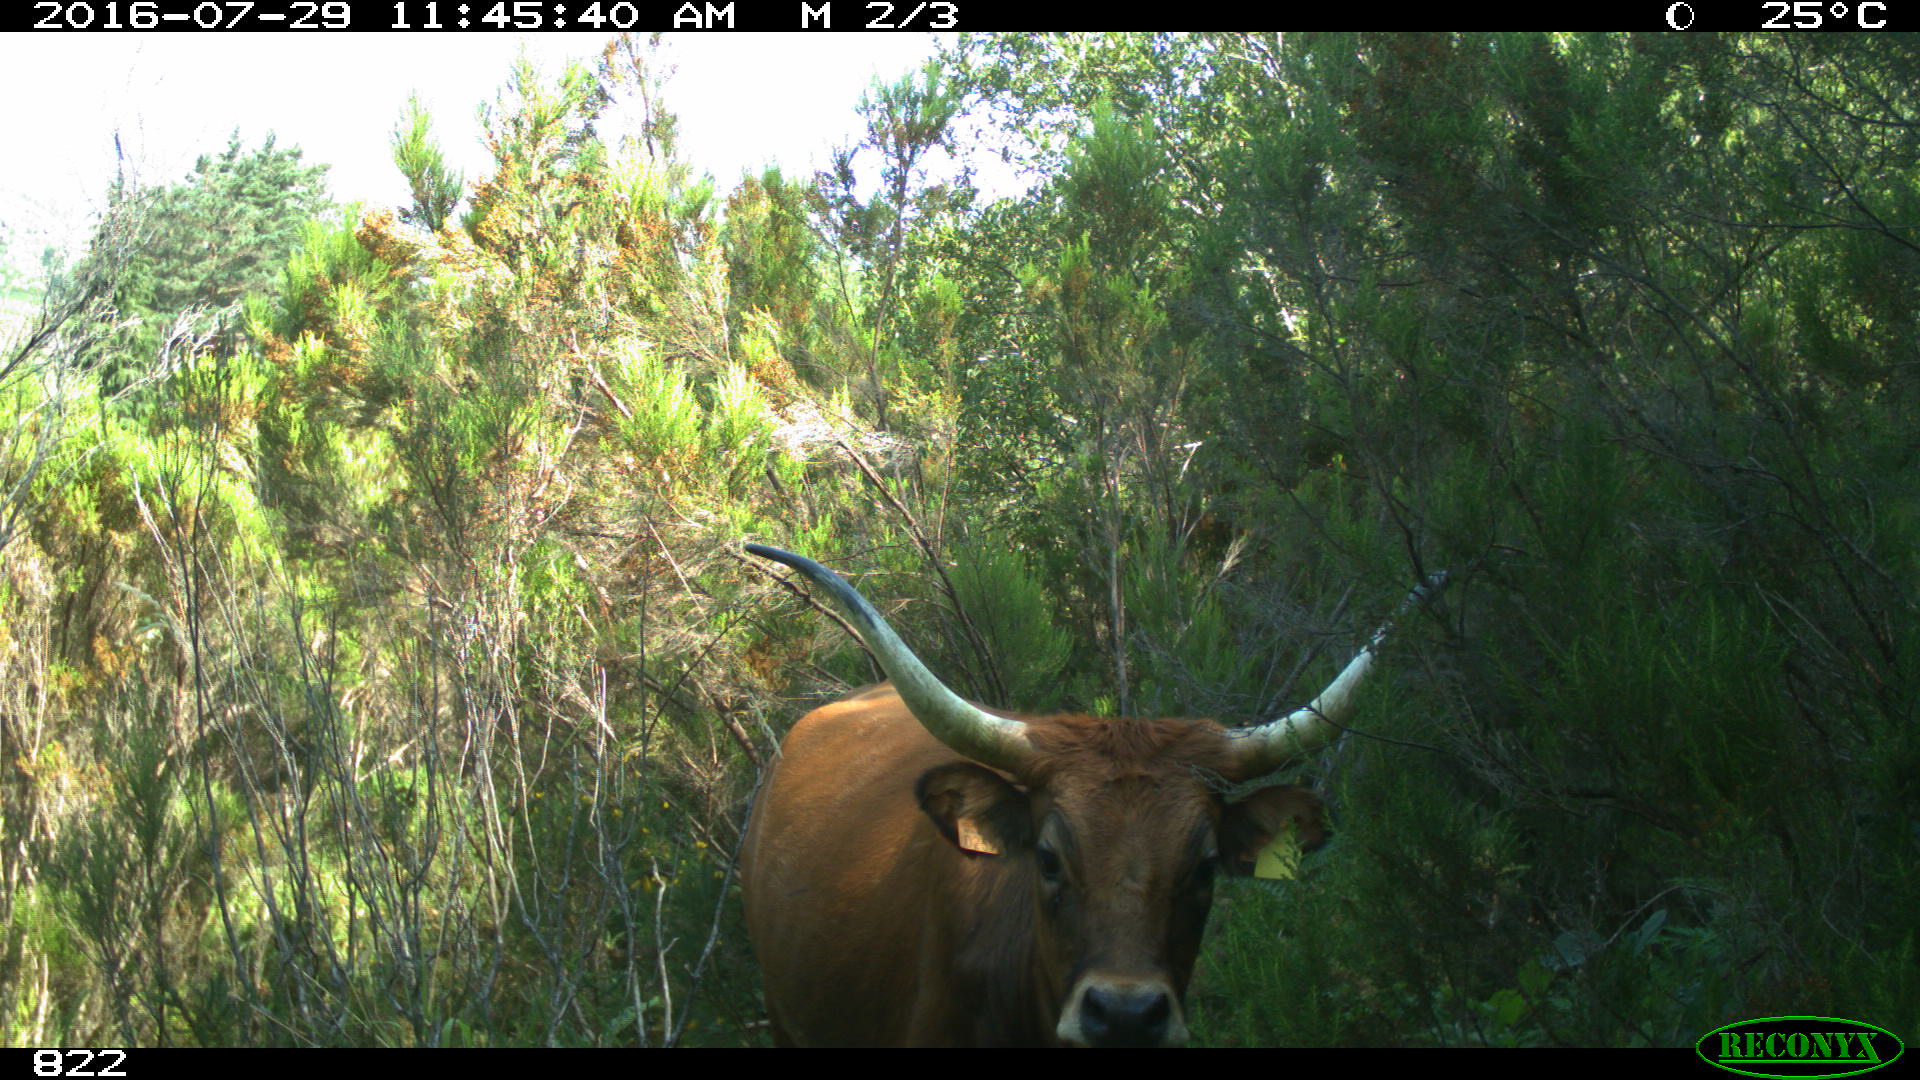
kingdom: Animalia
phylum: Chordata
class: Mammalia
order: Artiodactyla
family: Bovidae
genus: Bos
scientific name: Bos taurus
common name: Domesticated cattle
